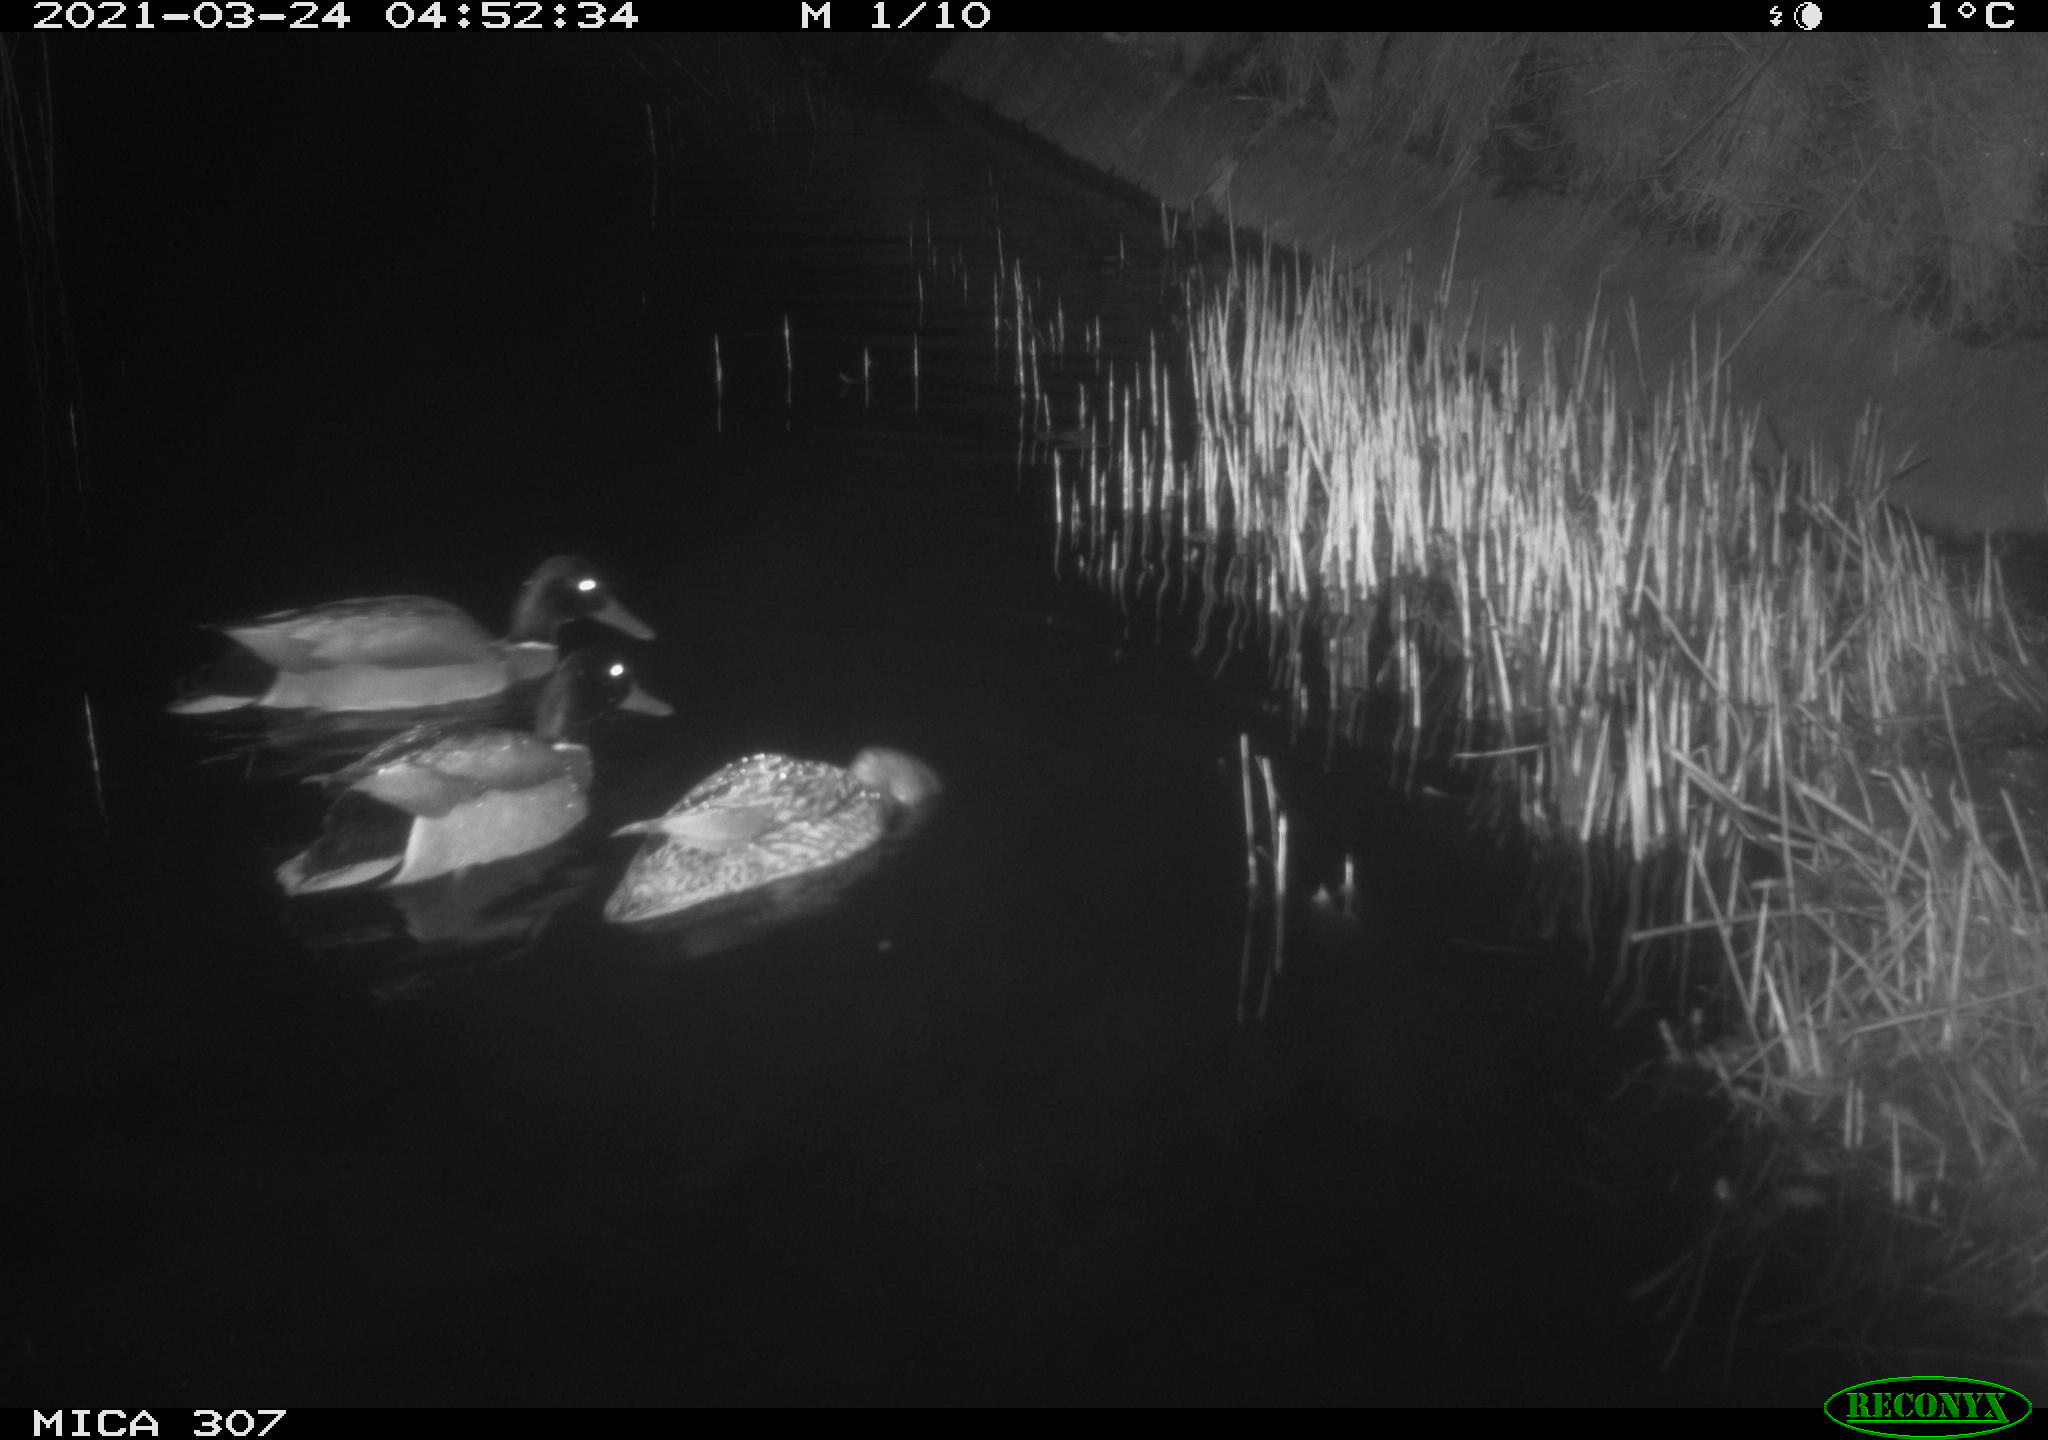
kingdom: Animalia
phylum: Chordata
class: Aves
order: Anseriformes
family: Anatidae
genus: Anas
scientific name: Anas platyrhynchos
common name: Mallard
